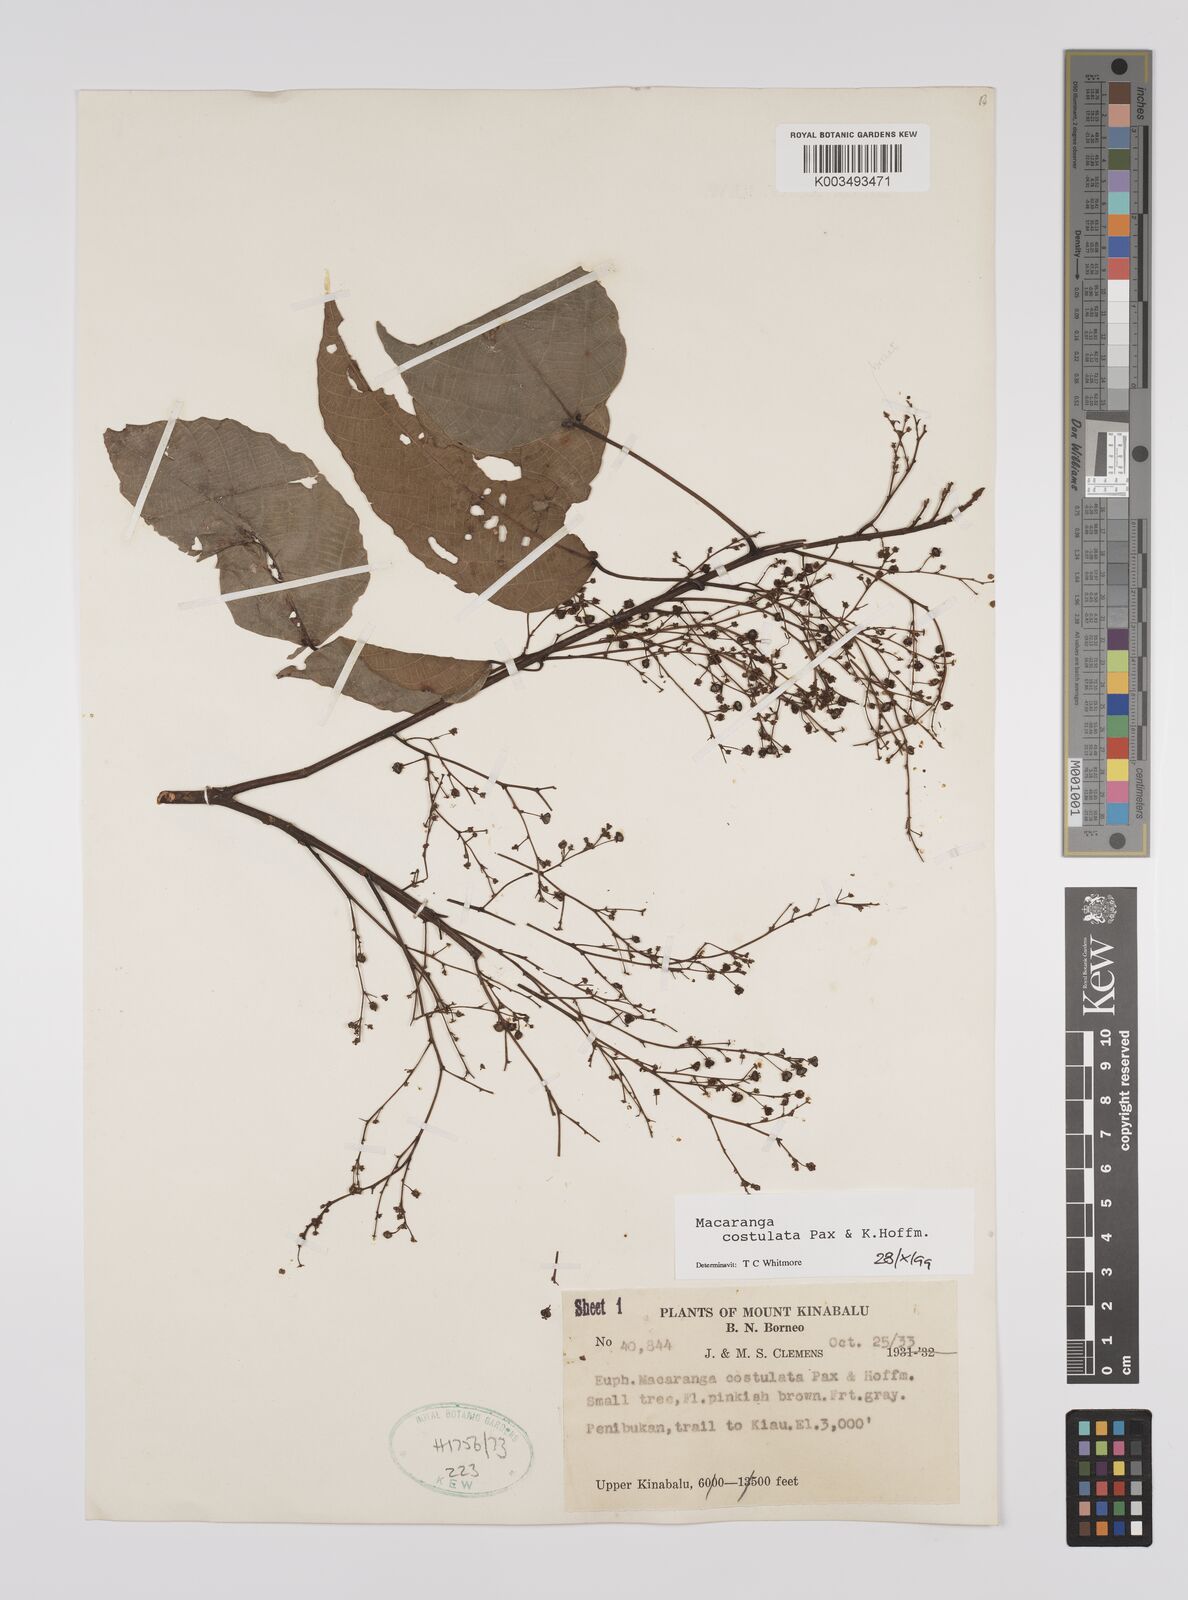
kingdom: Plantae
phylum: Tracheophyta
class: Magnoliopsida
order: Malpighiales
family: Euphorbiaceae
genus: Macaranga
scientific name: Macaranga costulata
